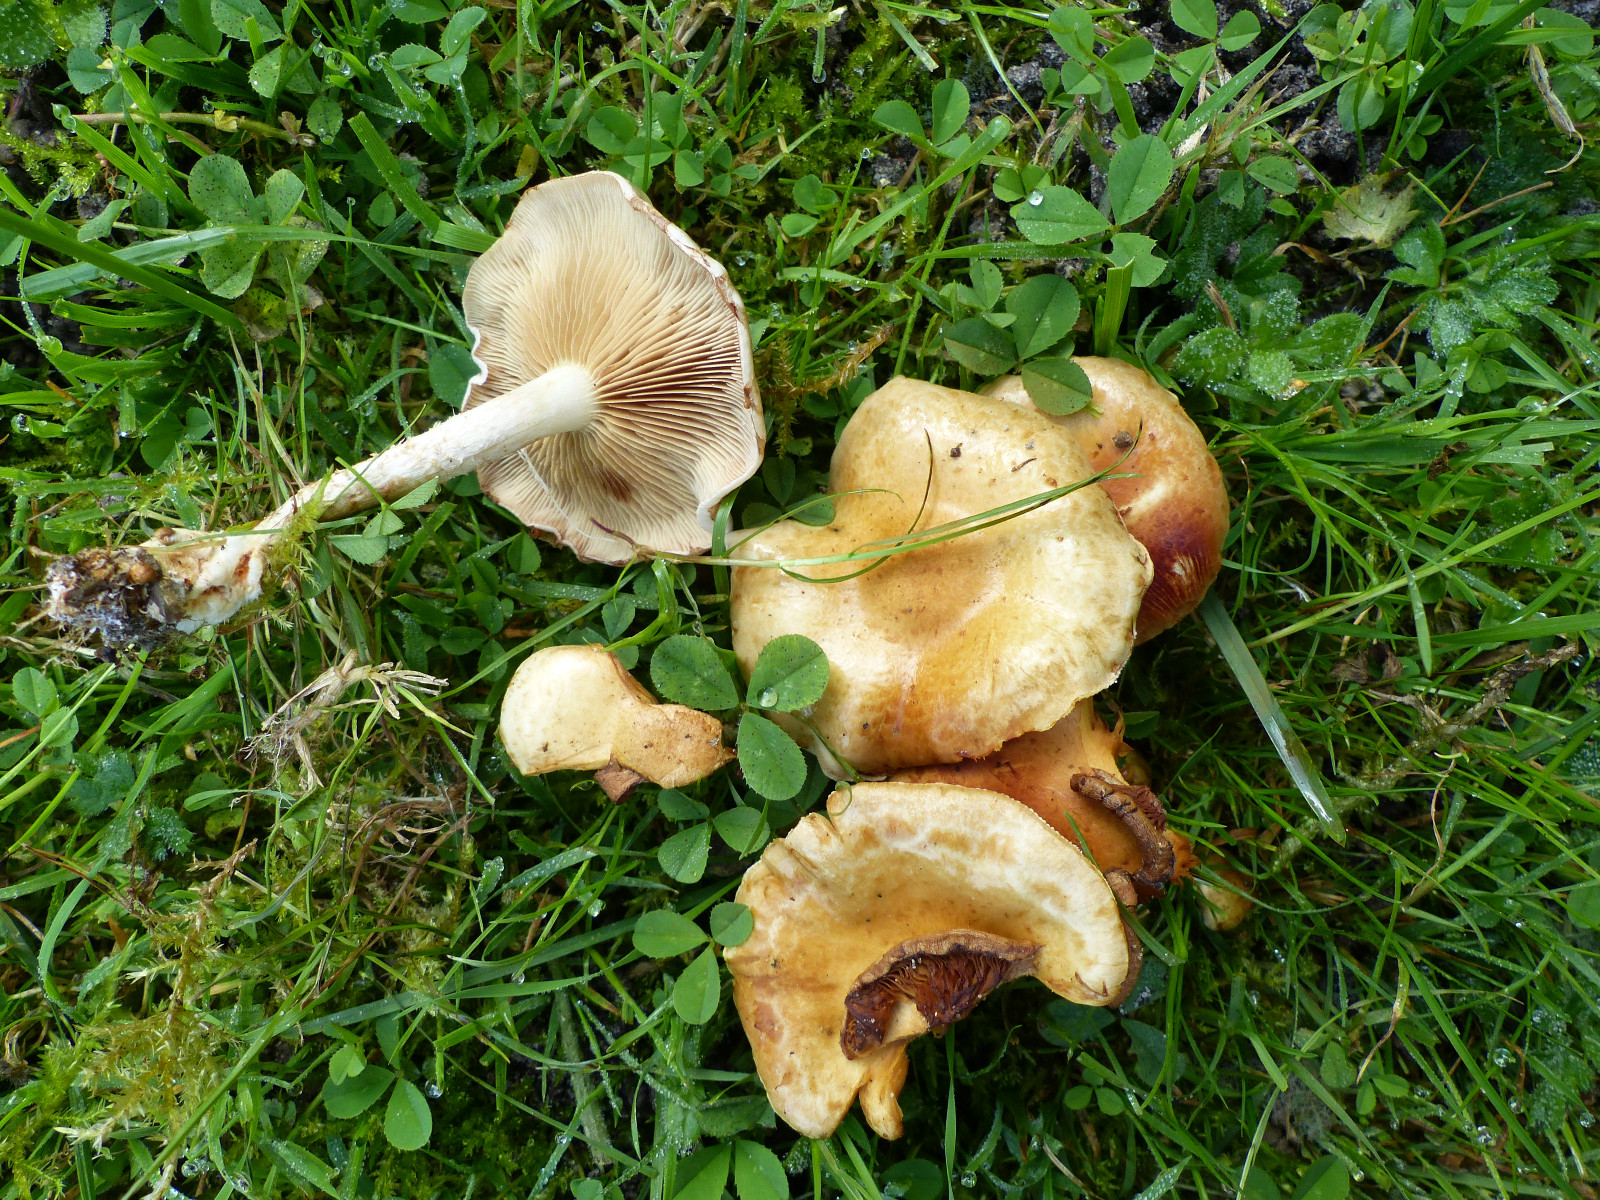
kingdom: Fungi
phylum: Basidiomycota
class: Agaricomycetes
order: Agaricales
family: Strophariaceae
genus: Pholiota
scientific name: Pholiota
